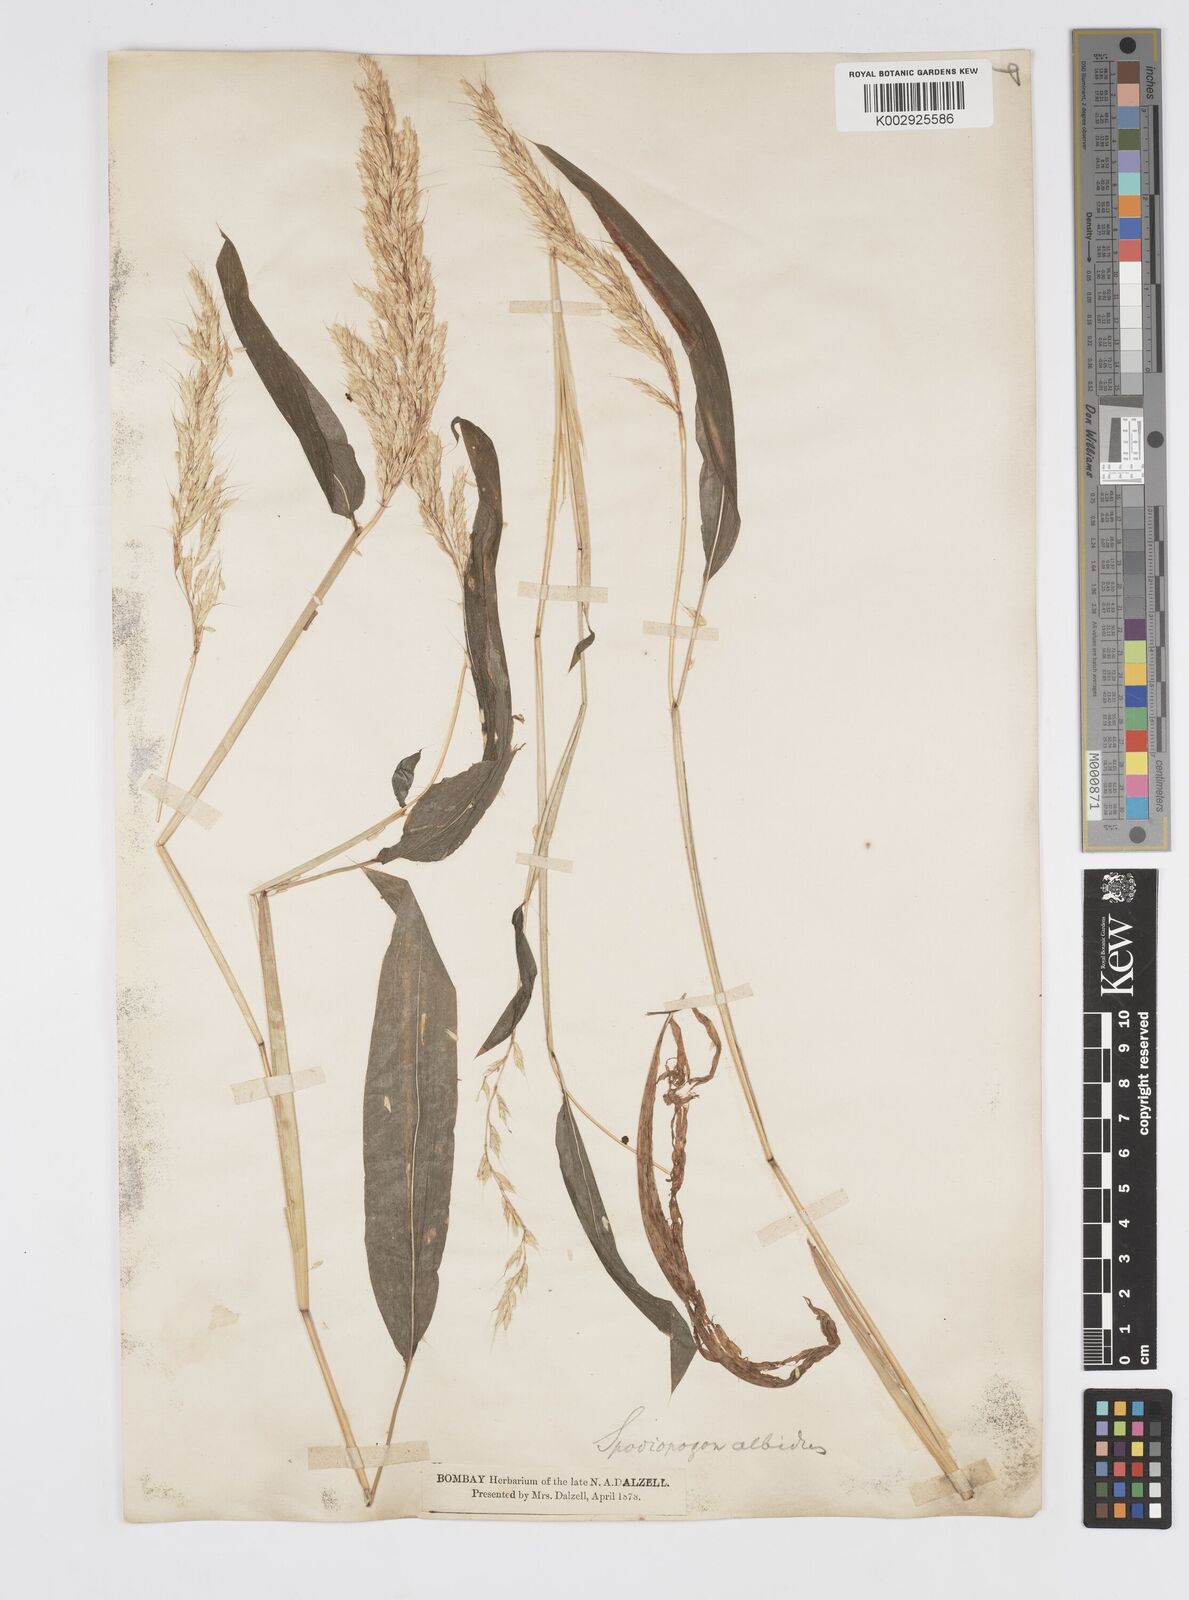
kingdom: Plantae
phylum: Tracheophyta
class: Liliopsida
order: Poales
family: Poaceae
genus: Spodiopogon
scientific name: Spodiopogon rhizophorus
